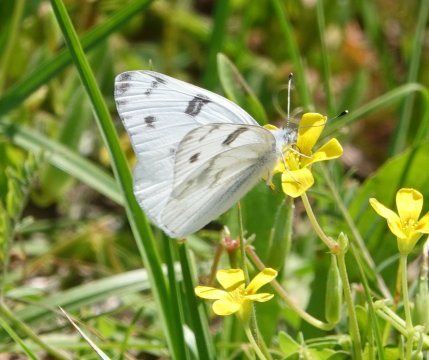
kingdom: Animalia
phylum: Arthropoda
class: Insecta
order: Lepidoptera
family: Pieridae
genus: Pontia
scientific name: Pontia protodice
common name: Checkered White
